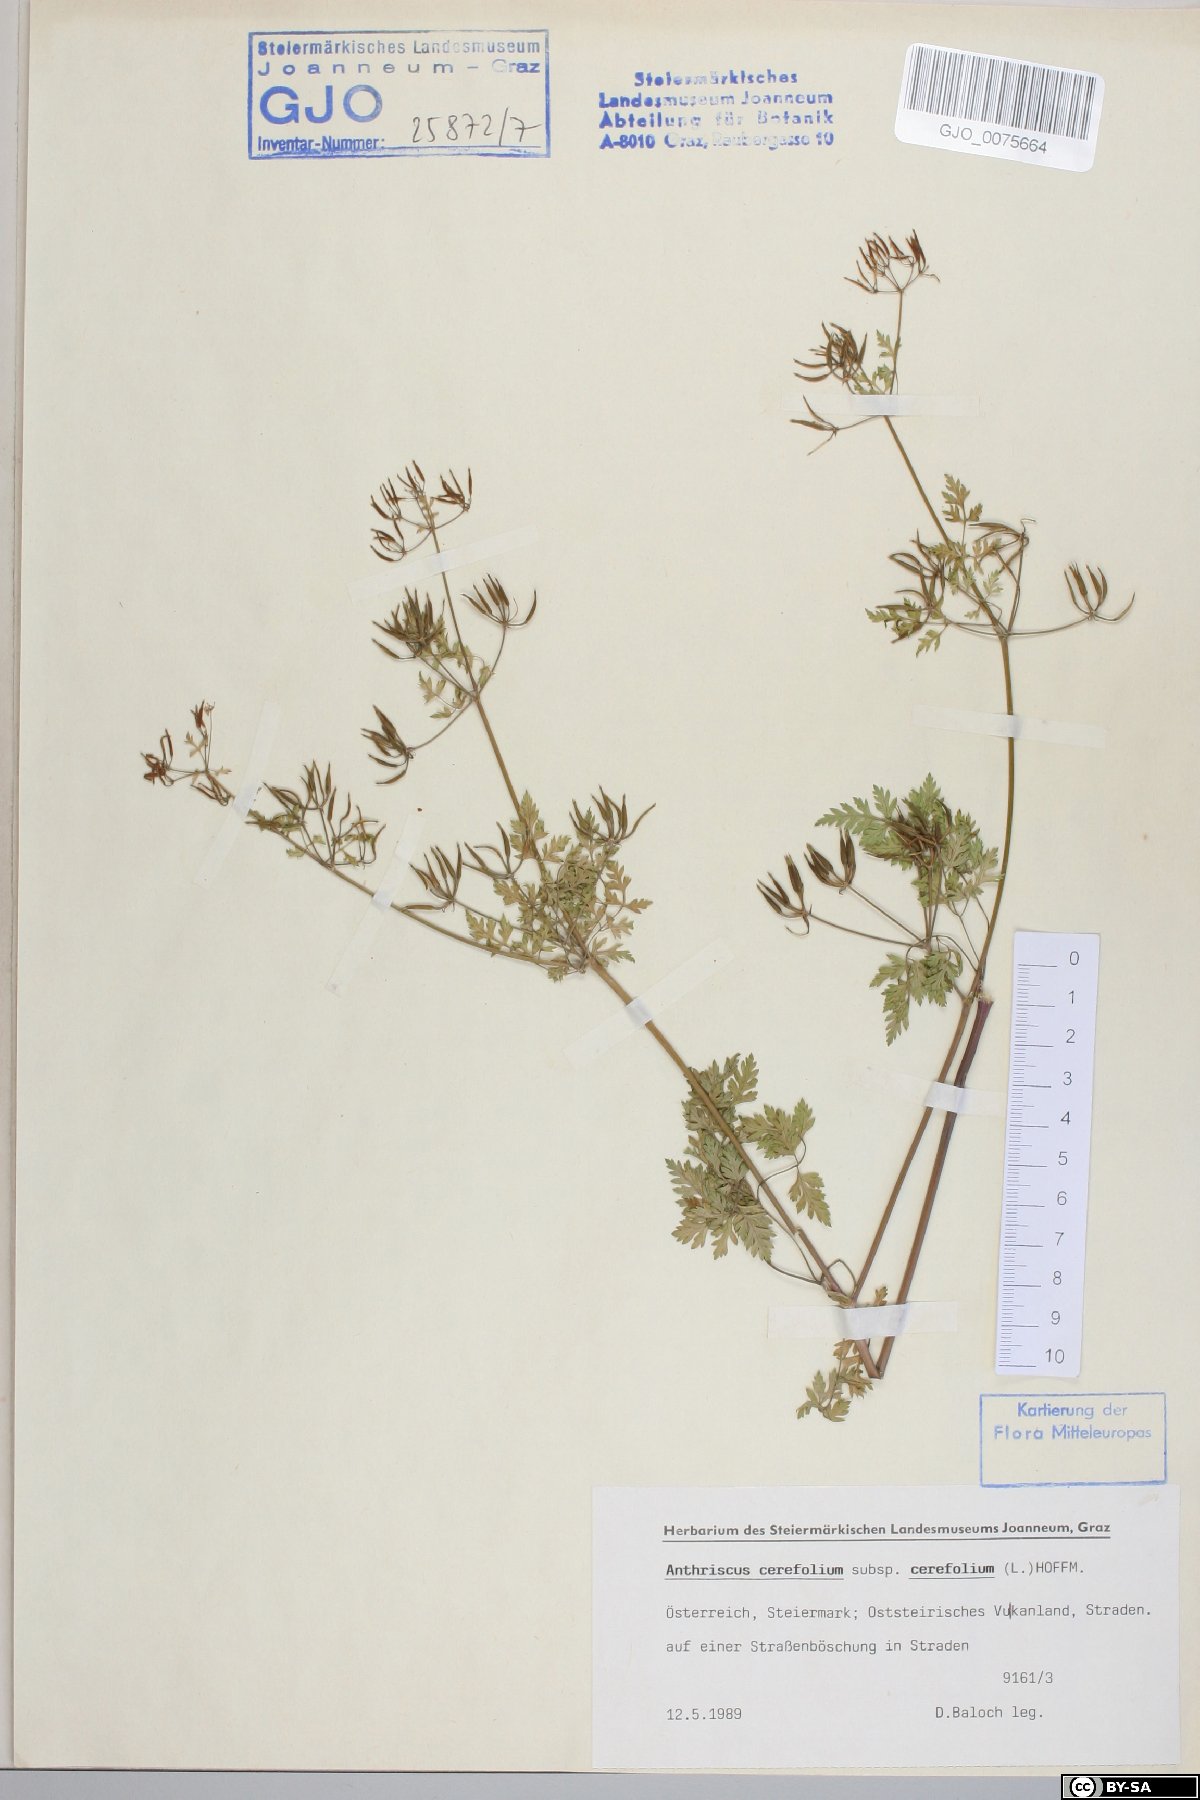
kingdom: Plantae
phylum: Tracheophyta
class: Magnoliopsida
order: Apiales
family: Apiaceae
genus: Anthriscus
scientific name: Anthriscus cerefolium
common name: Garden chervil
